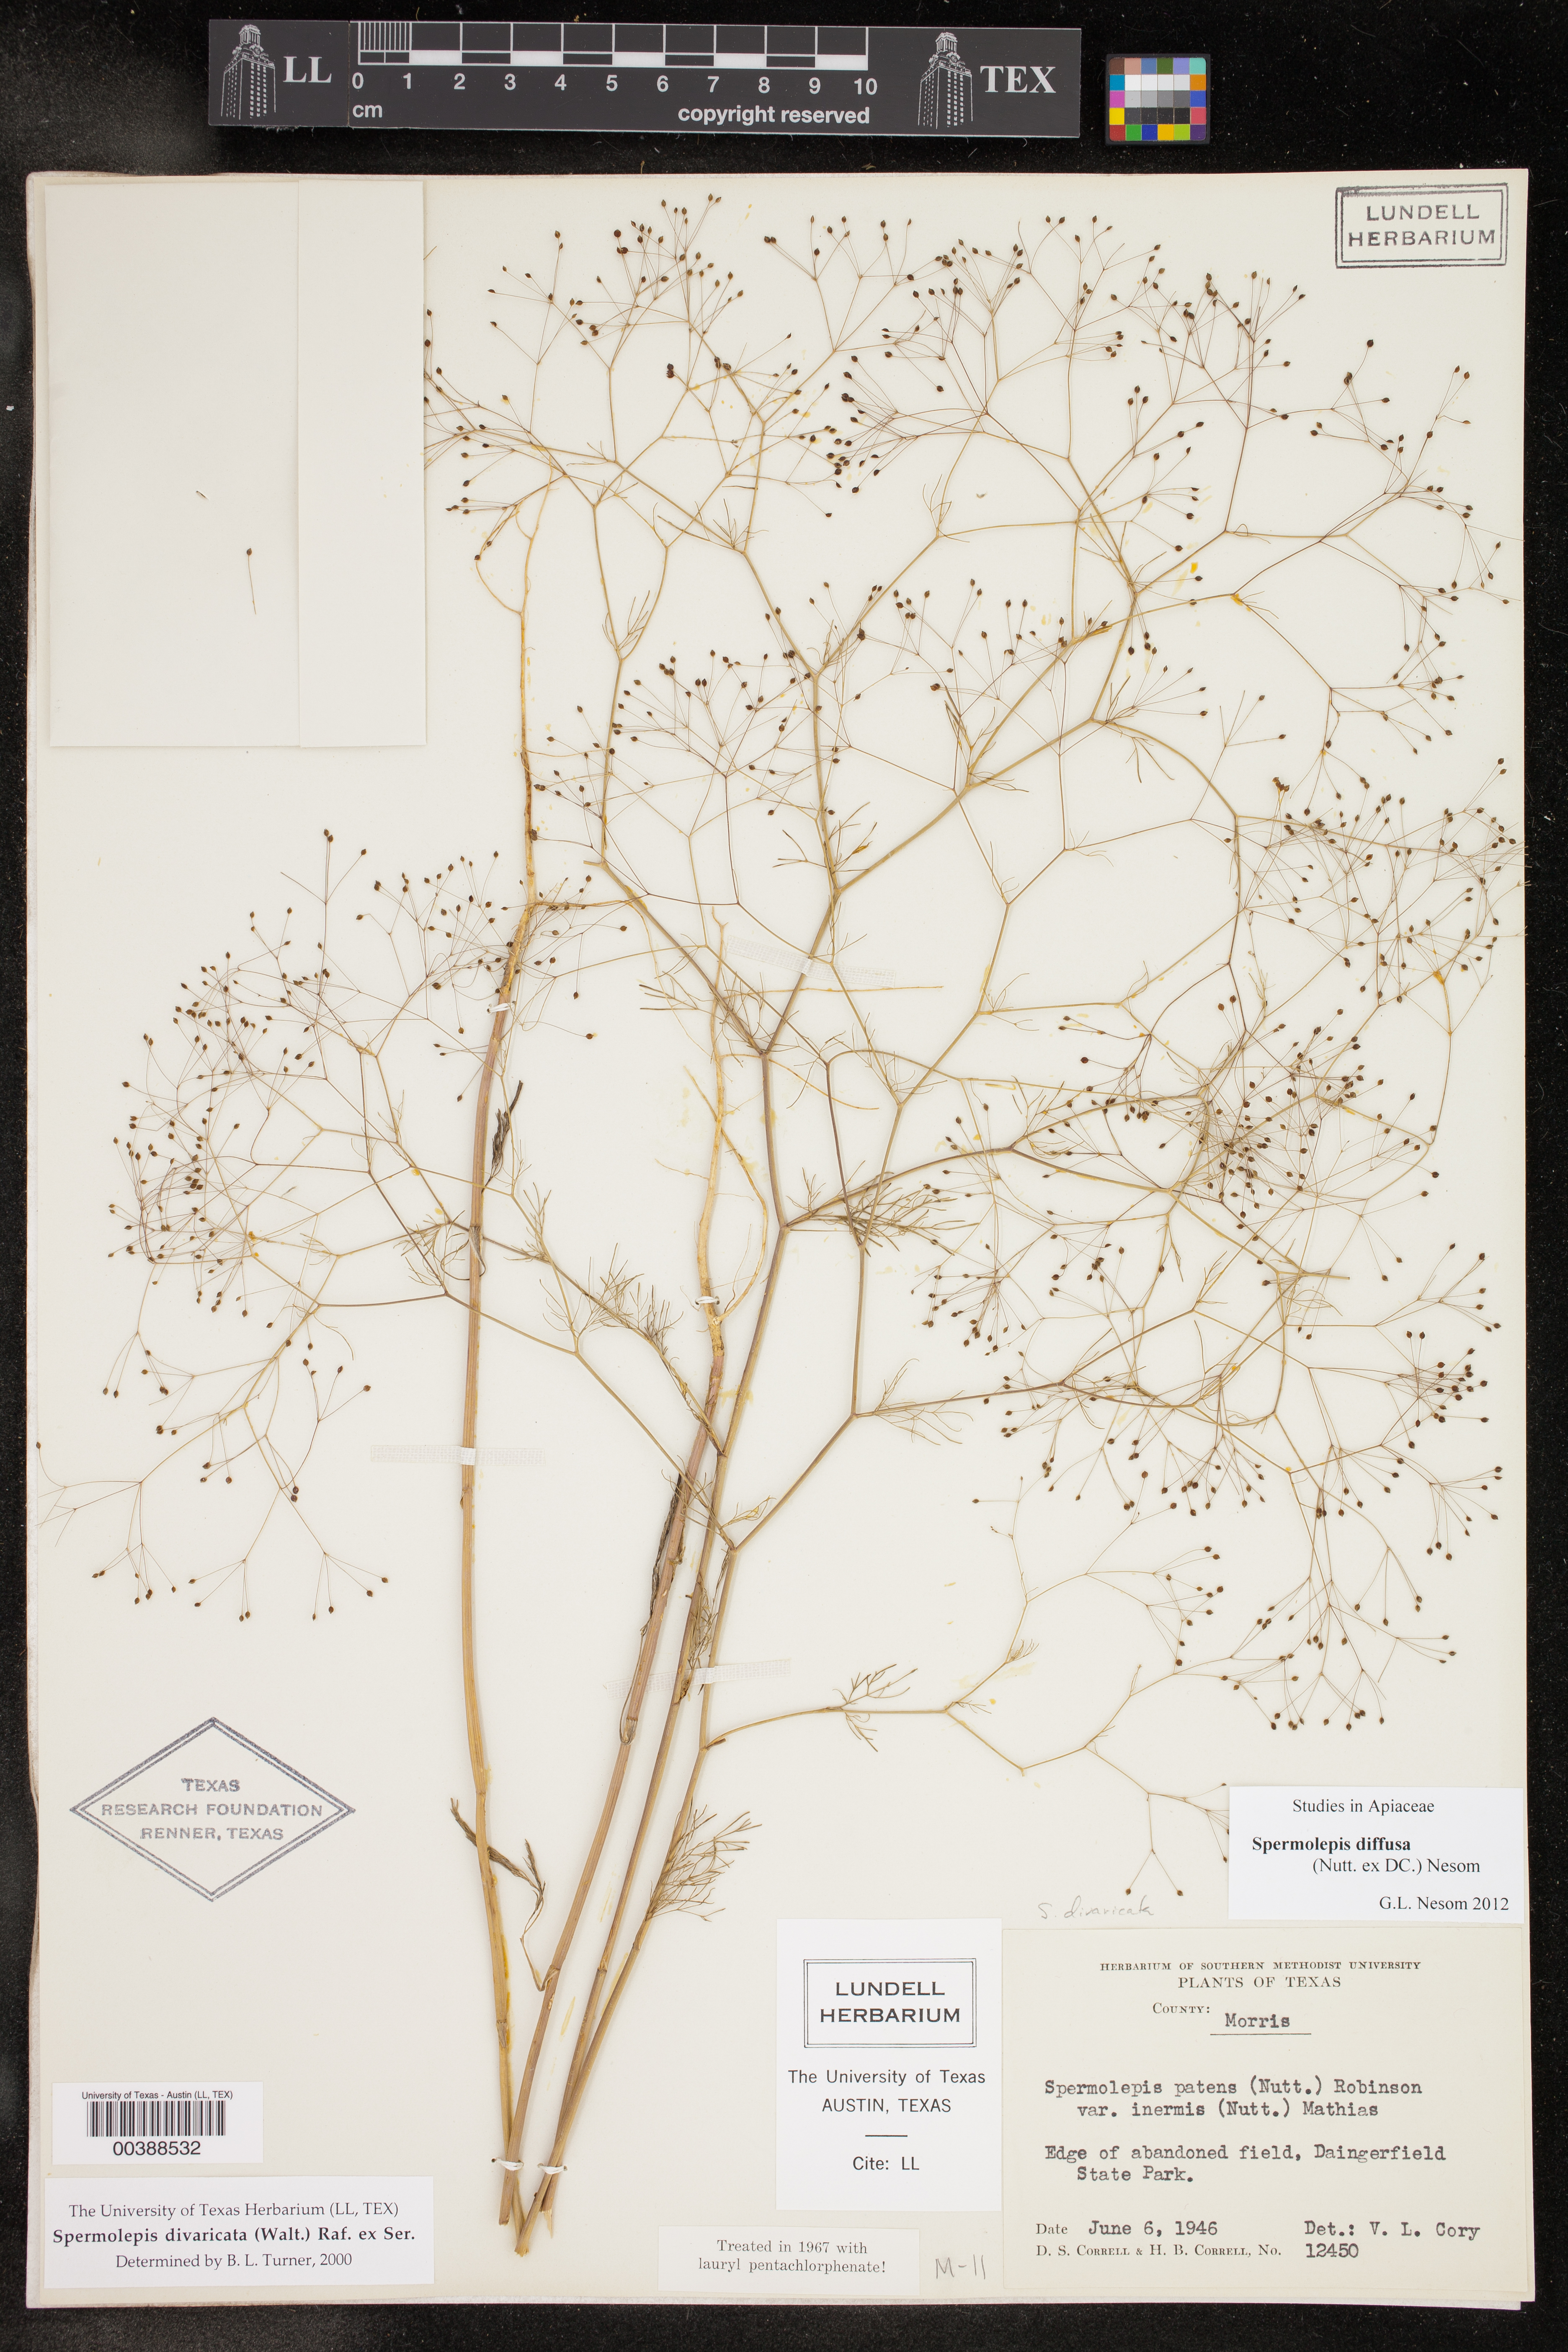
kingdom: Plantae
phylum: Tracheophyta
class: Magnoliopsida
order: Apiales
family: Apiaceae
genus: Spermolepis
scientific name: Spermolepis diffusa
